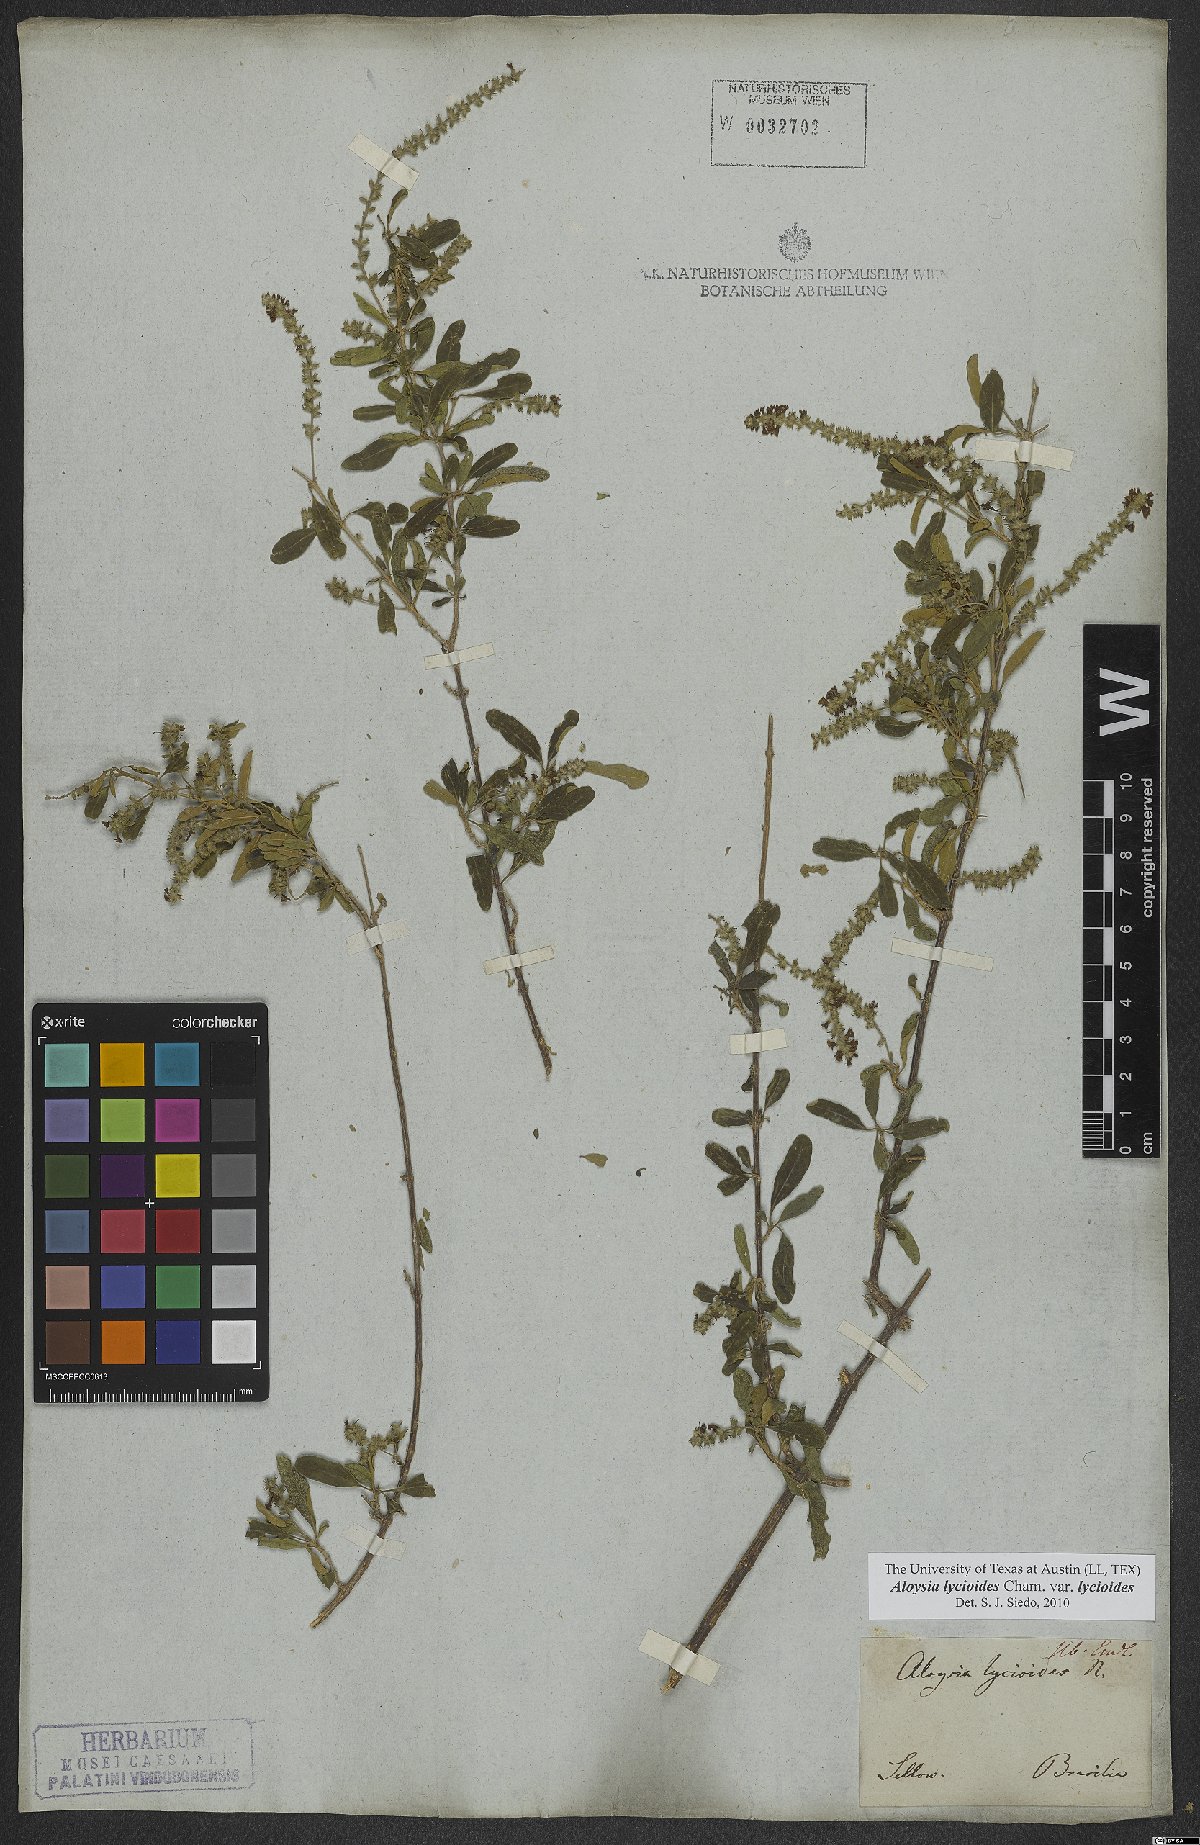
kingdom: Plantae
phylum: Tracheophyta
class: Magnoliopsida
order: Lamiales
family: Verbenaceae
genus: Aloysia
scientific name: Aloysia gratissima
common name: Common bee-brush
